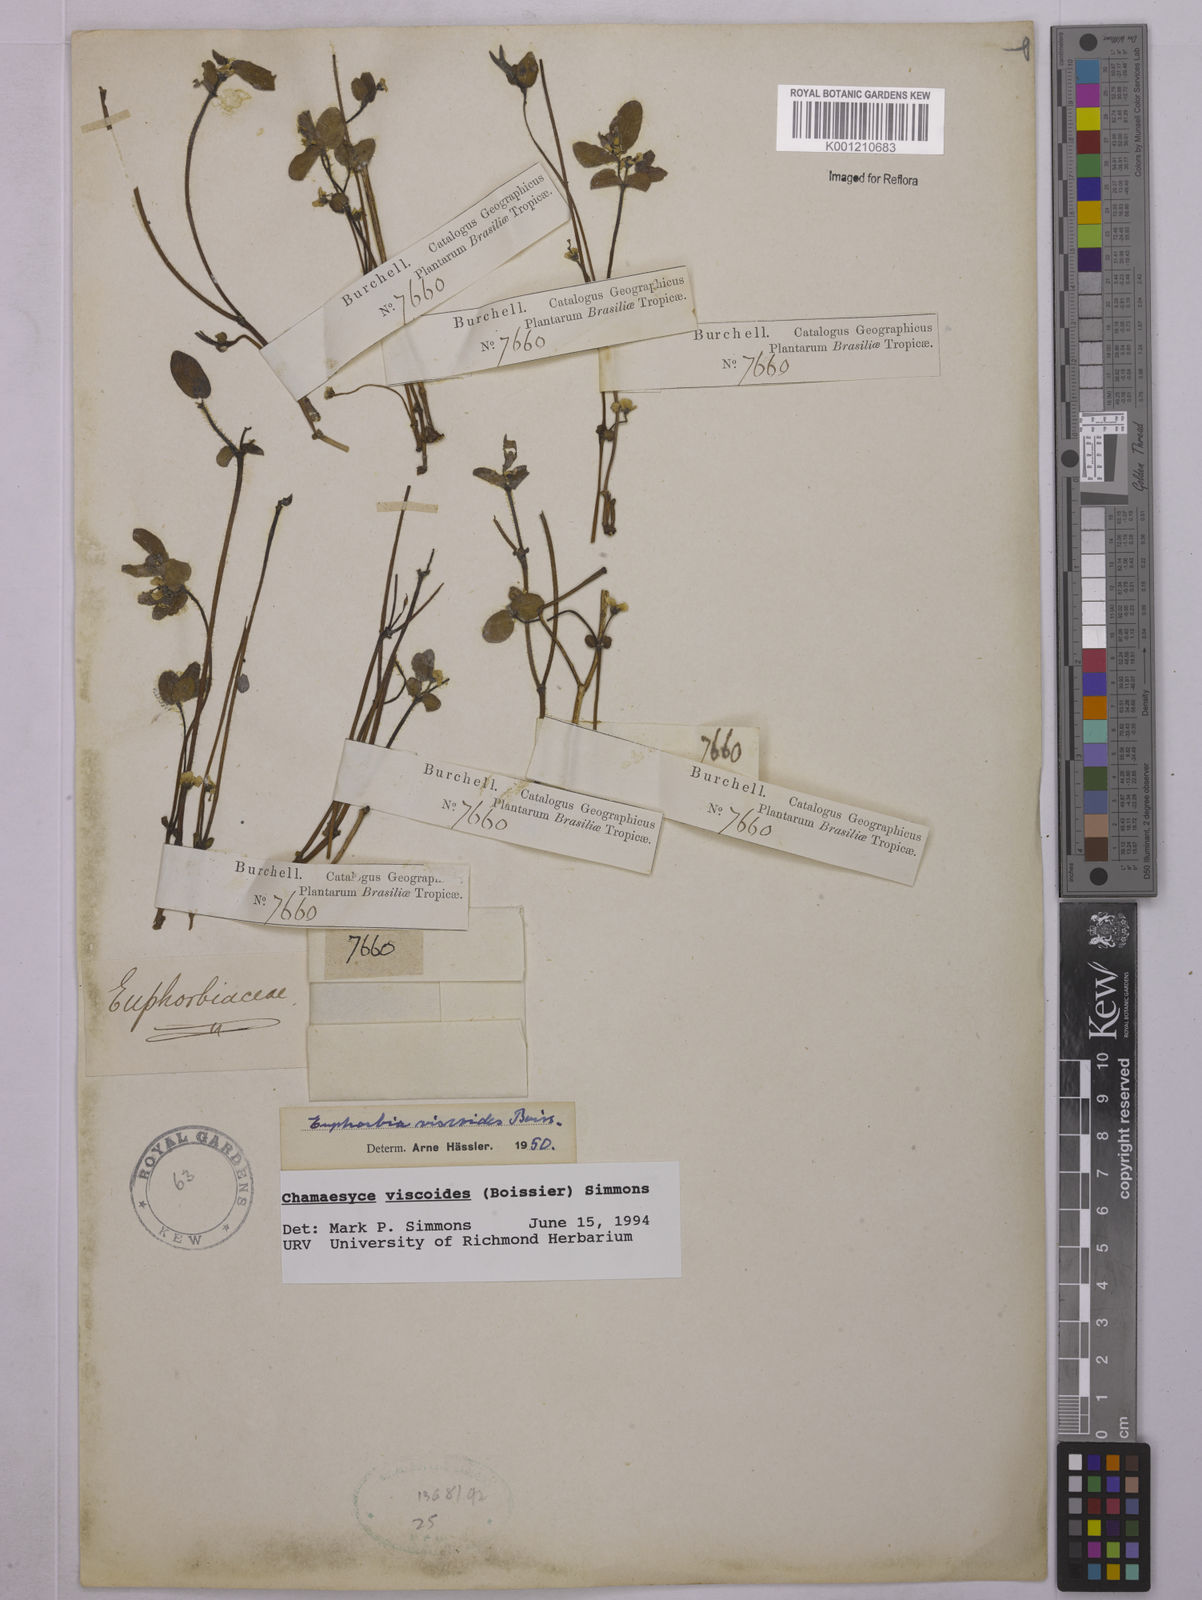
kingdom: Plantae
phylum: Tracheophyta
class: Magnoliopsida
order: Malpighiales
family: Euphorbiaceae
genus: Euphorbia
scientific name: Euphorbia viscoides
